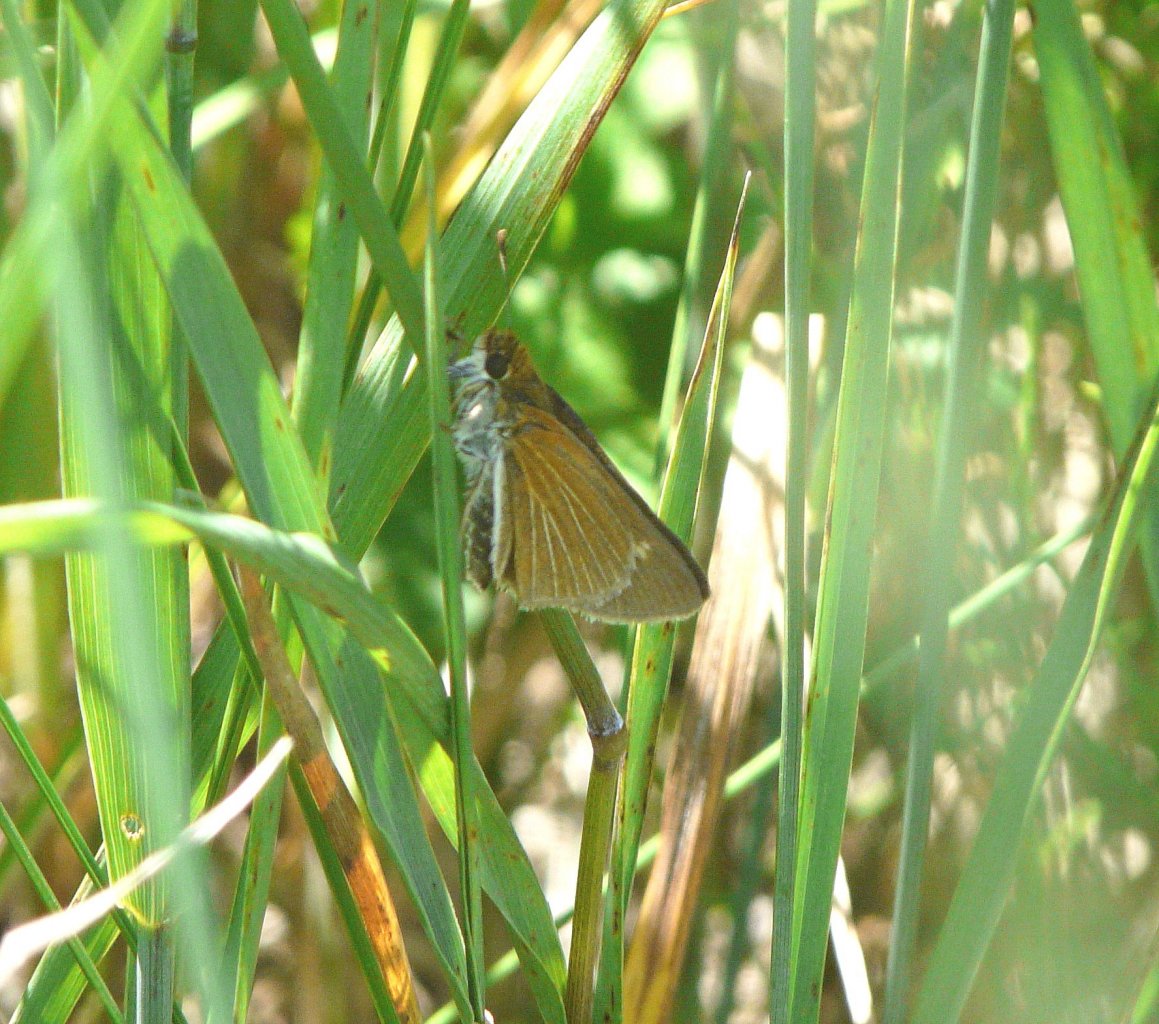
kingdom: Animalia
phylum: Arthropoda
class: Insecta
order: Lepidoptera
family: Hesperiidae
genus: Euphyes
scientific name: Euphyes bimacula
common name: Two-spotted Skipper
